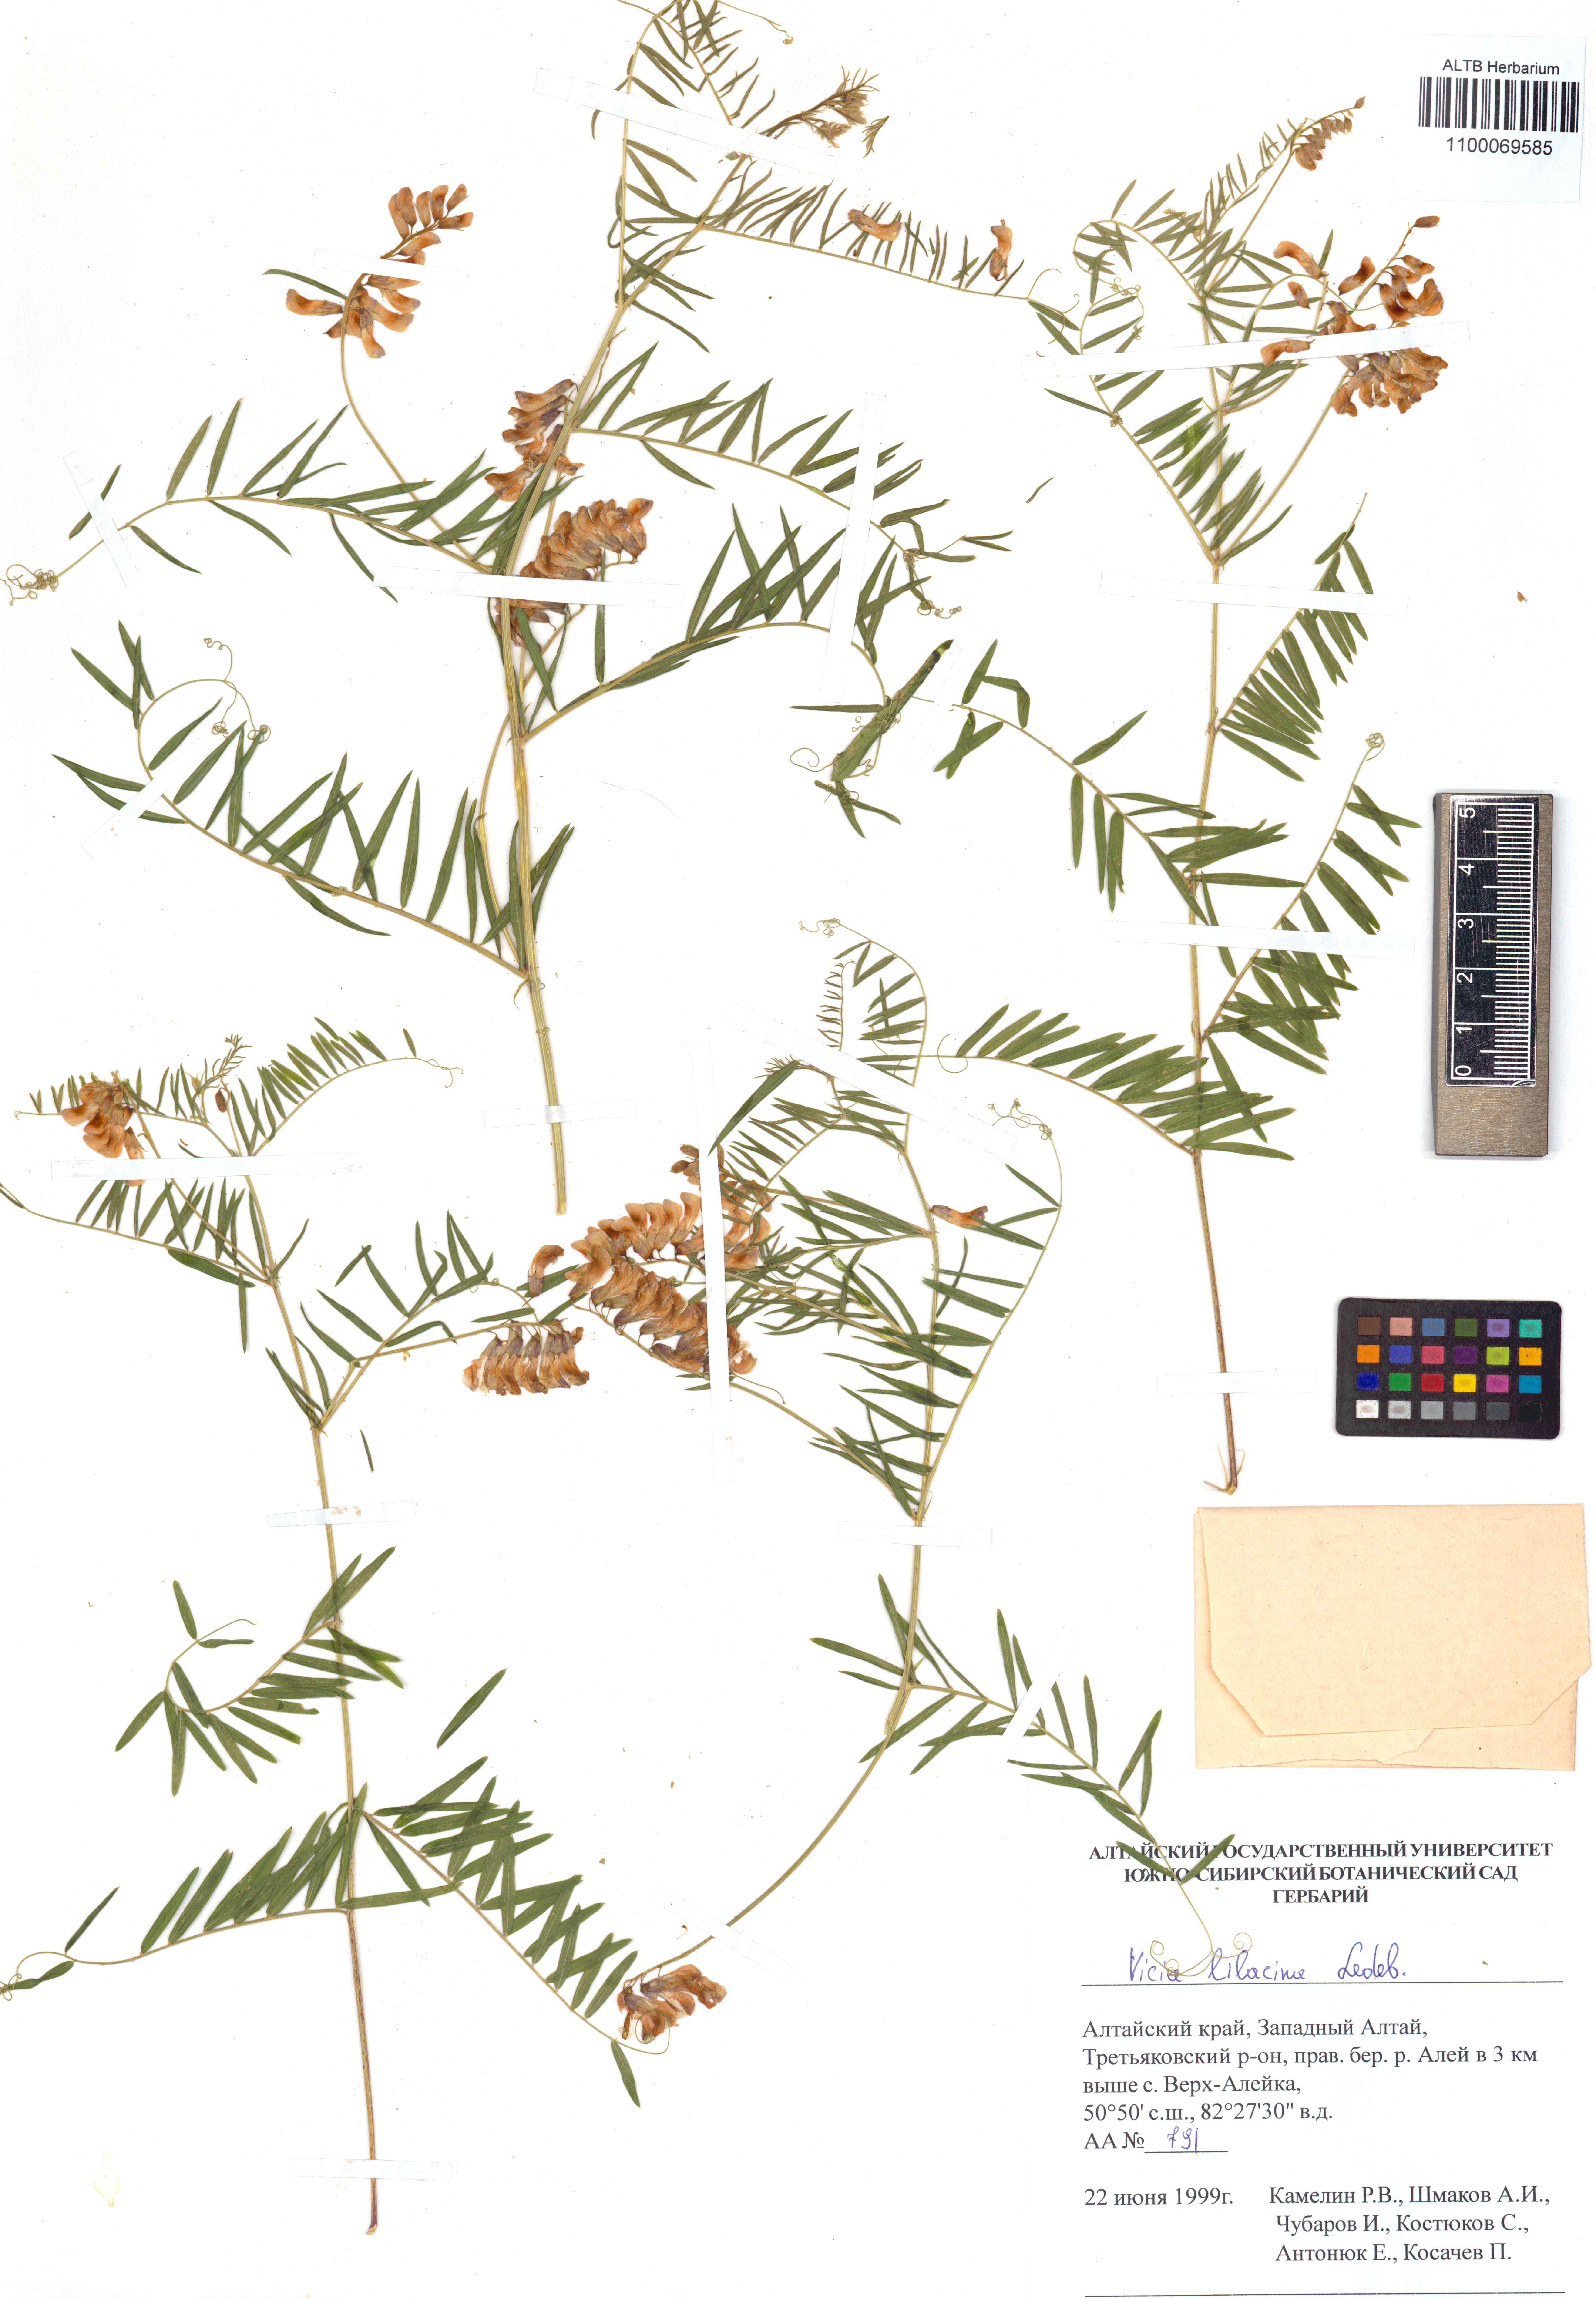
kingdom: Plantae
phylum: Tracheophyta
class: Magnoliopsida
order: Fabales
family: Fabaceae
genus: Vicia
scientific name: Vicia lilacina
